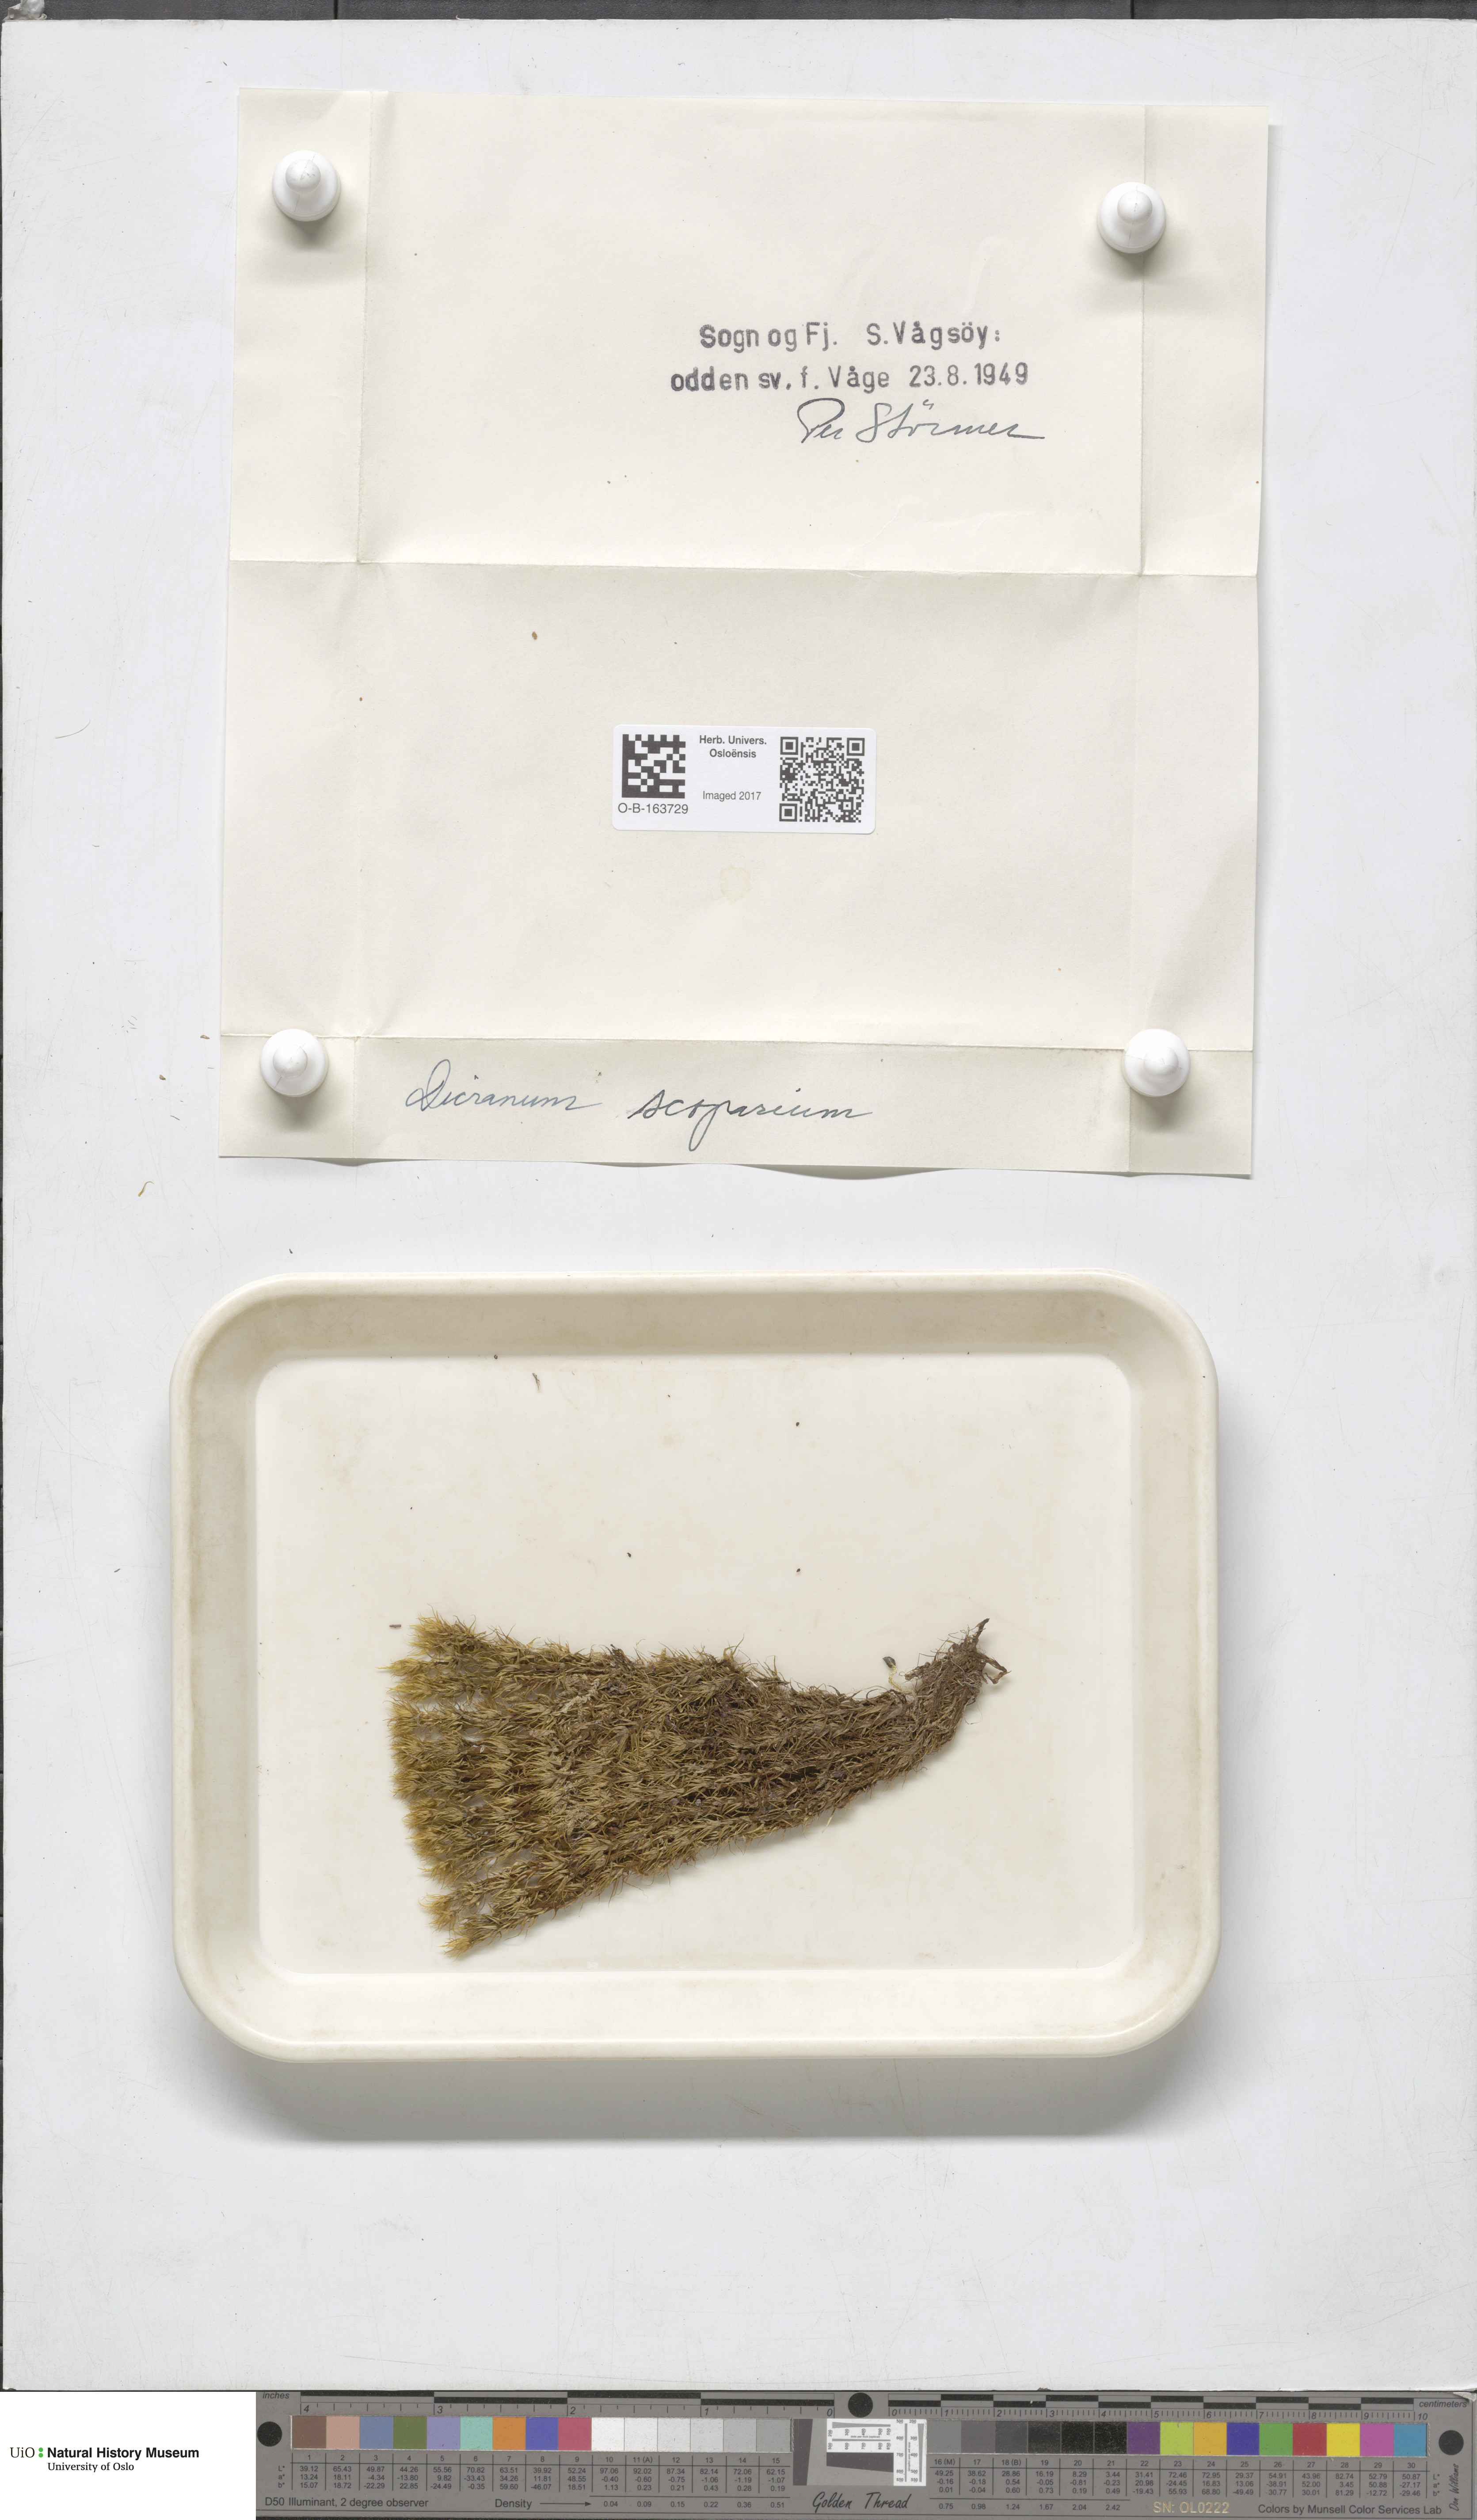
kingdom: Plantae
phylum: Bryophyta
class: Bryopsida
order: Dicranales
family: Dicranaceae
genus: Dicranum
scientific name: Dicranum scoparium
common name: Broom fork-moss
